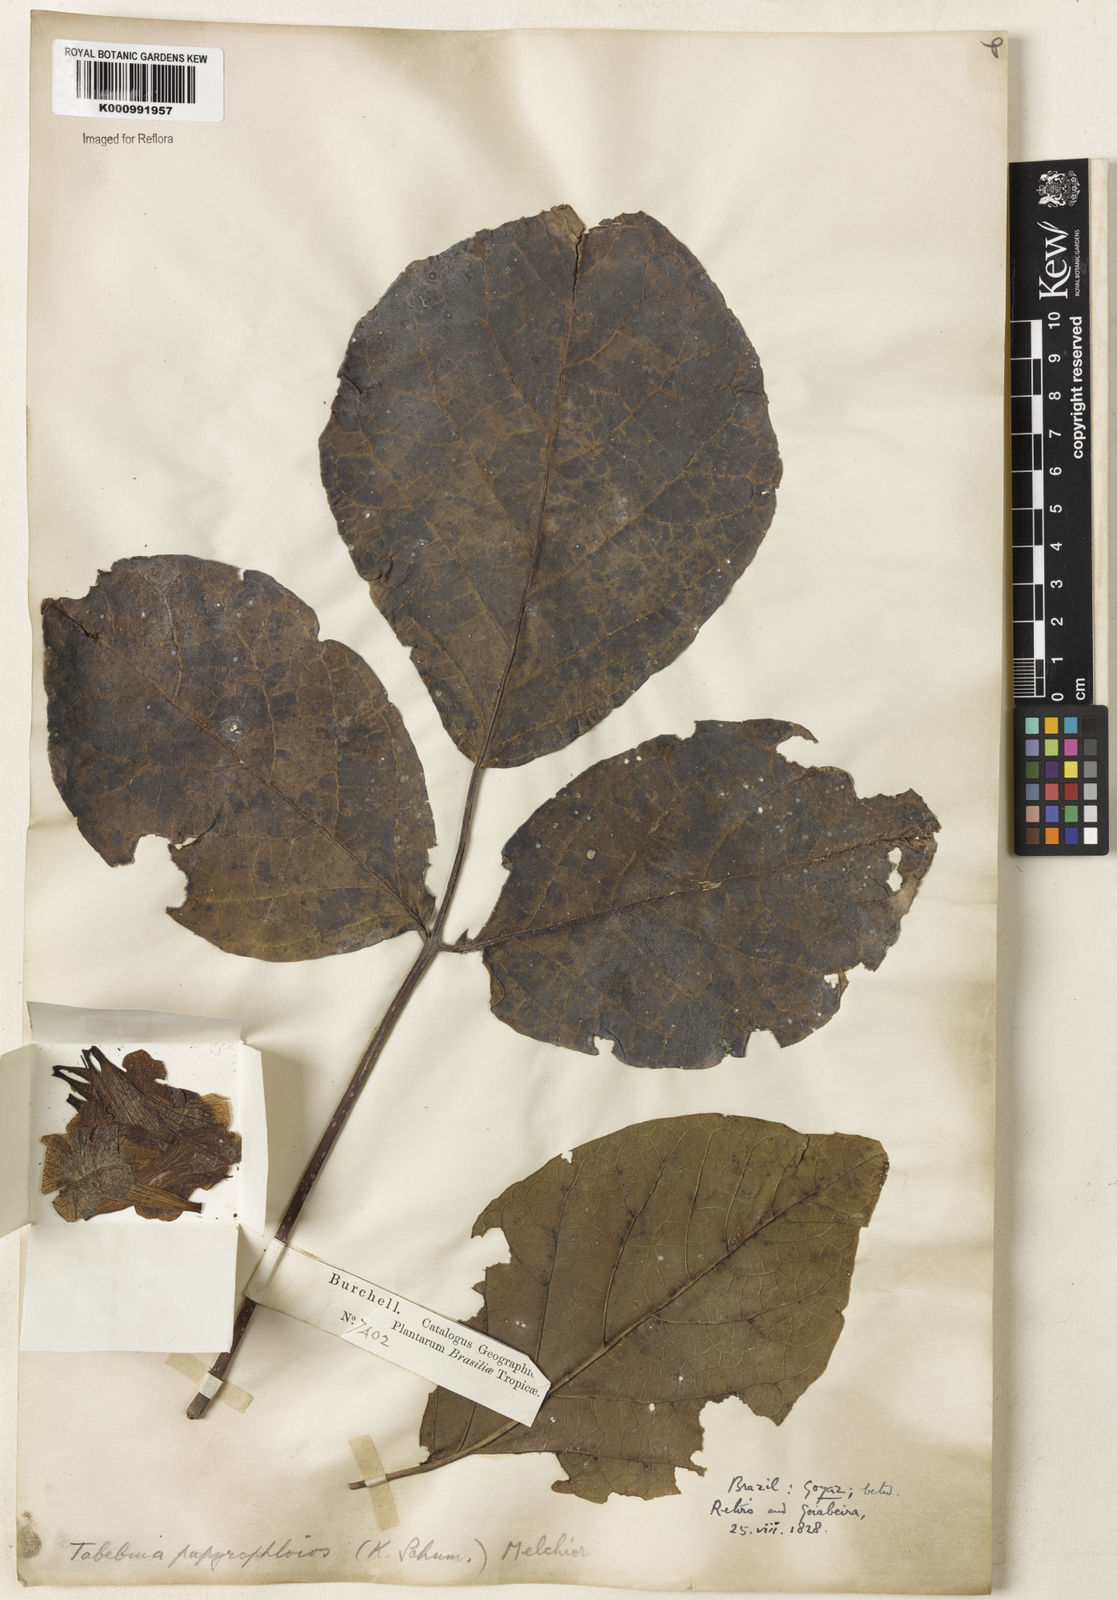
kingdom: Plantae
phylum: Tracheophyta
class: Magnoliopsida
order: Lamiales
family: Bignoniaceae
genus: Tabebuia
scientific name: Tabebuia roseoalba
